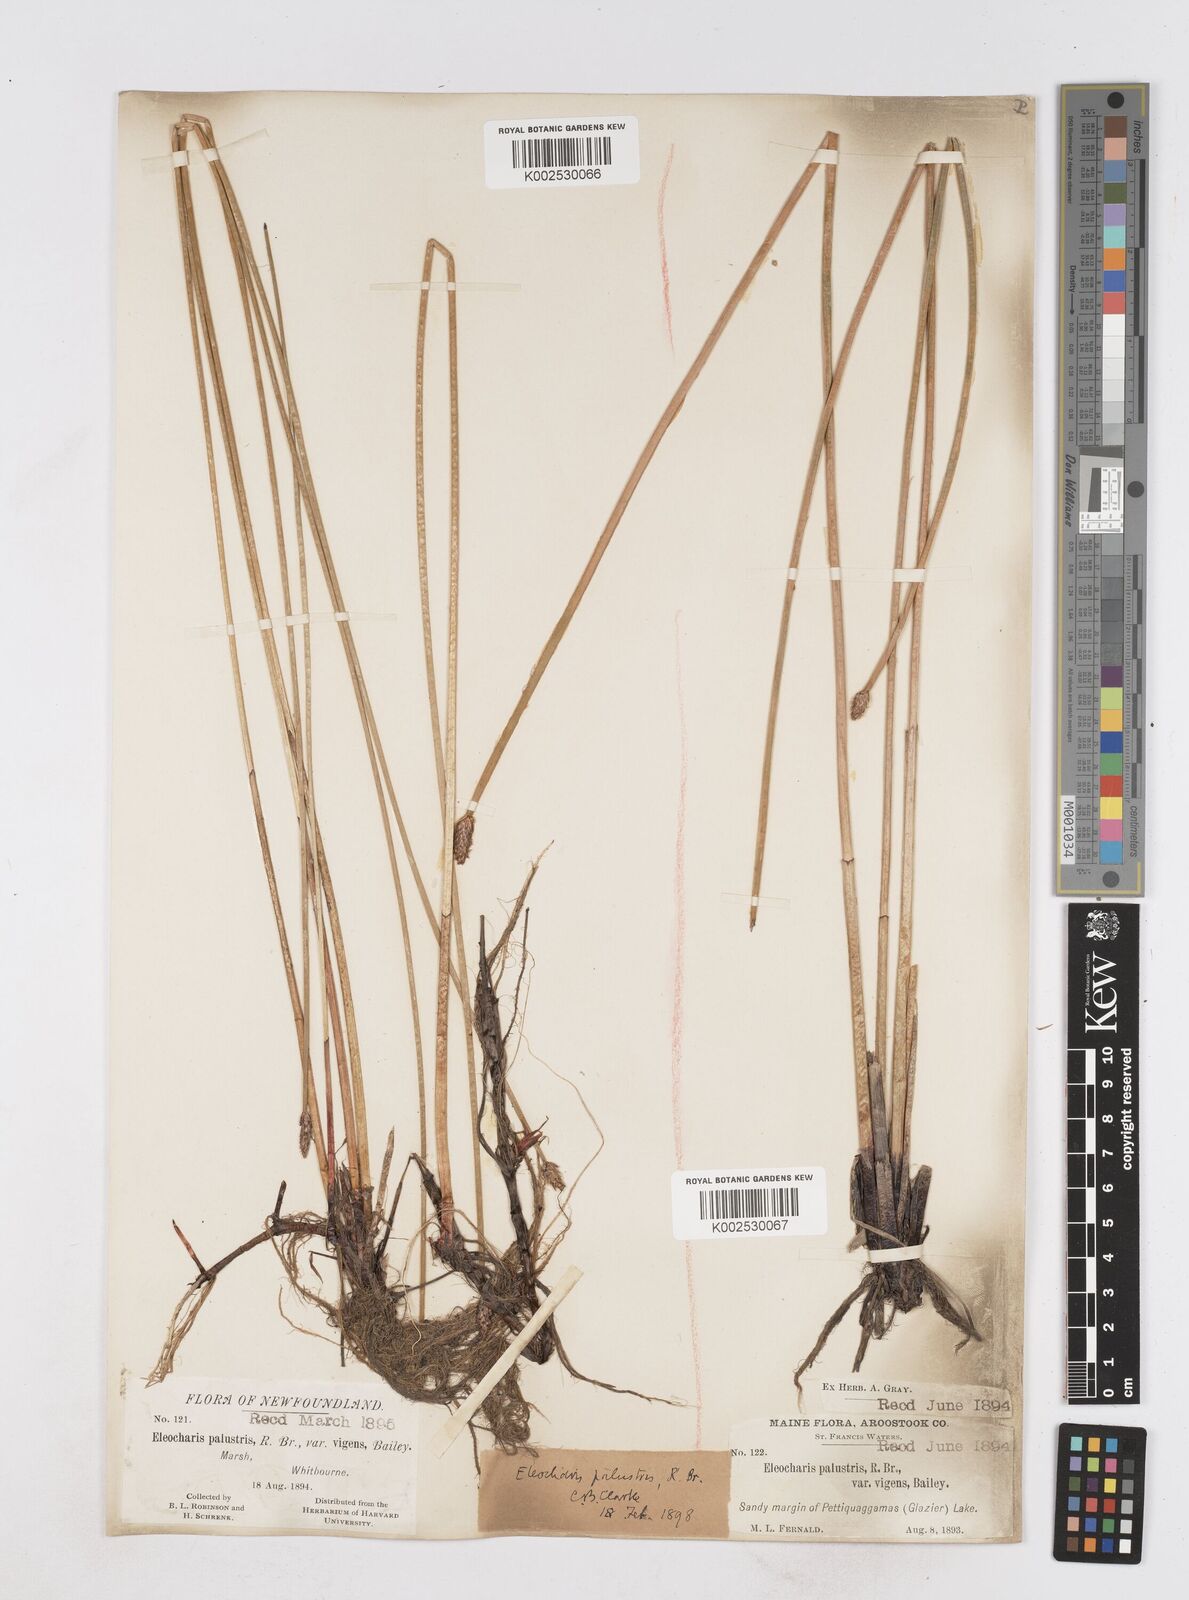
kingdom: Plantae
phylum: Tracheophyta
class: Liliopsida
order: Poales
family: Cyperaceae
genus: Eleocharis
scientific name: Eleocharis palustris
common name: Common spike-rush
